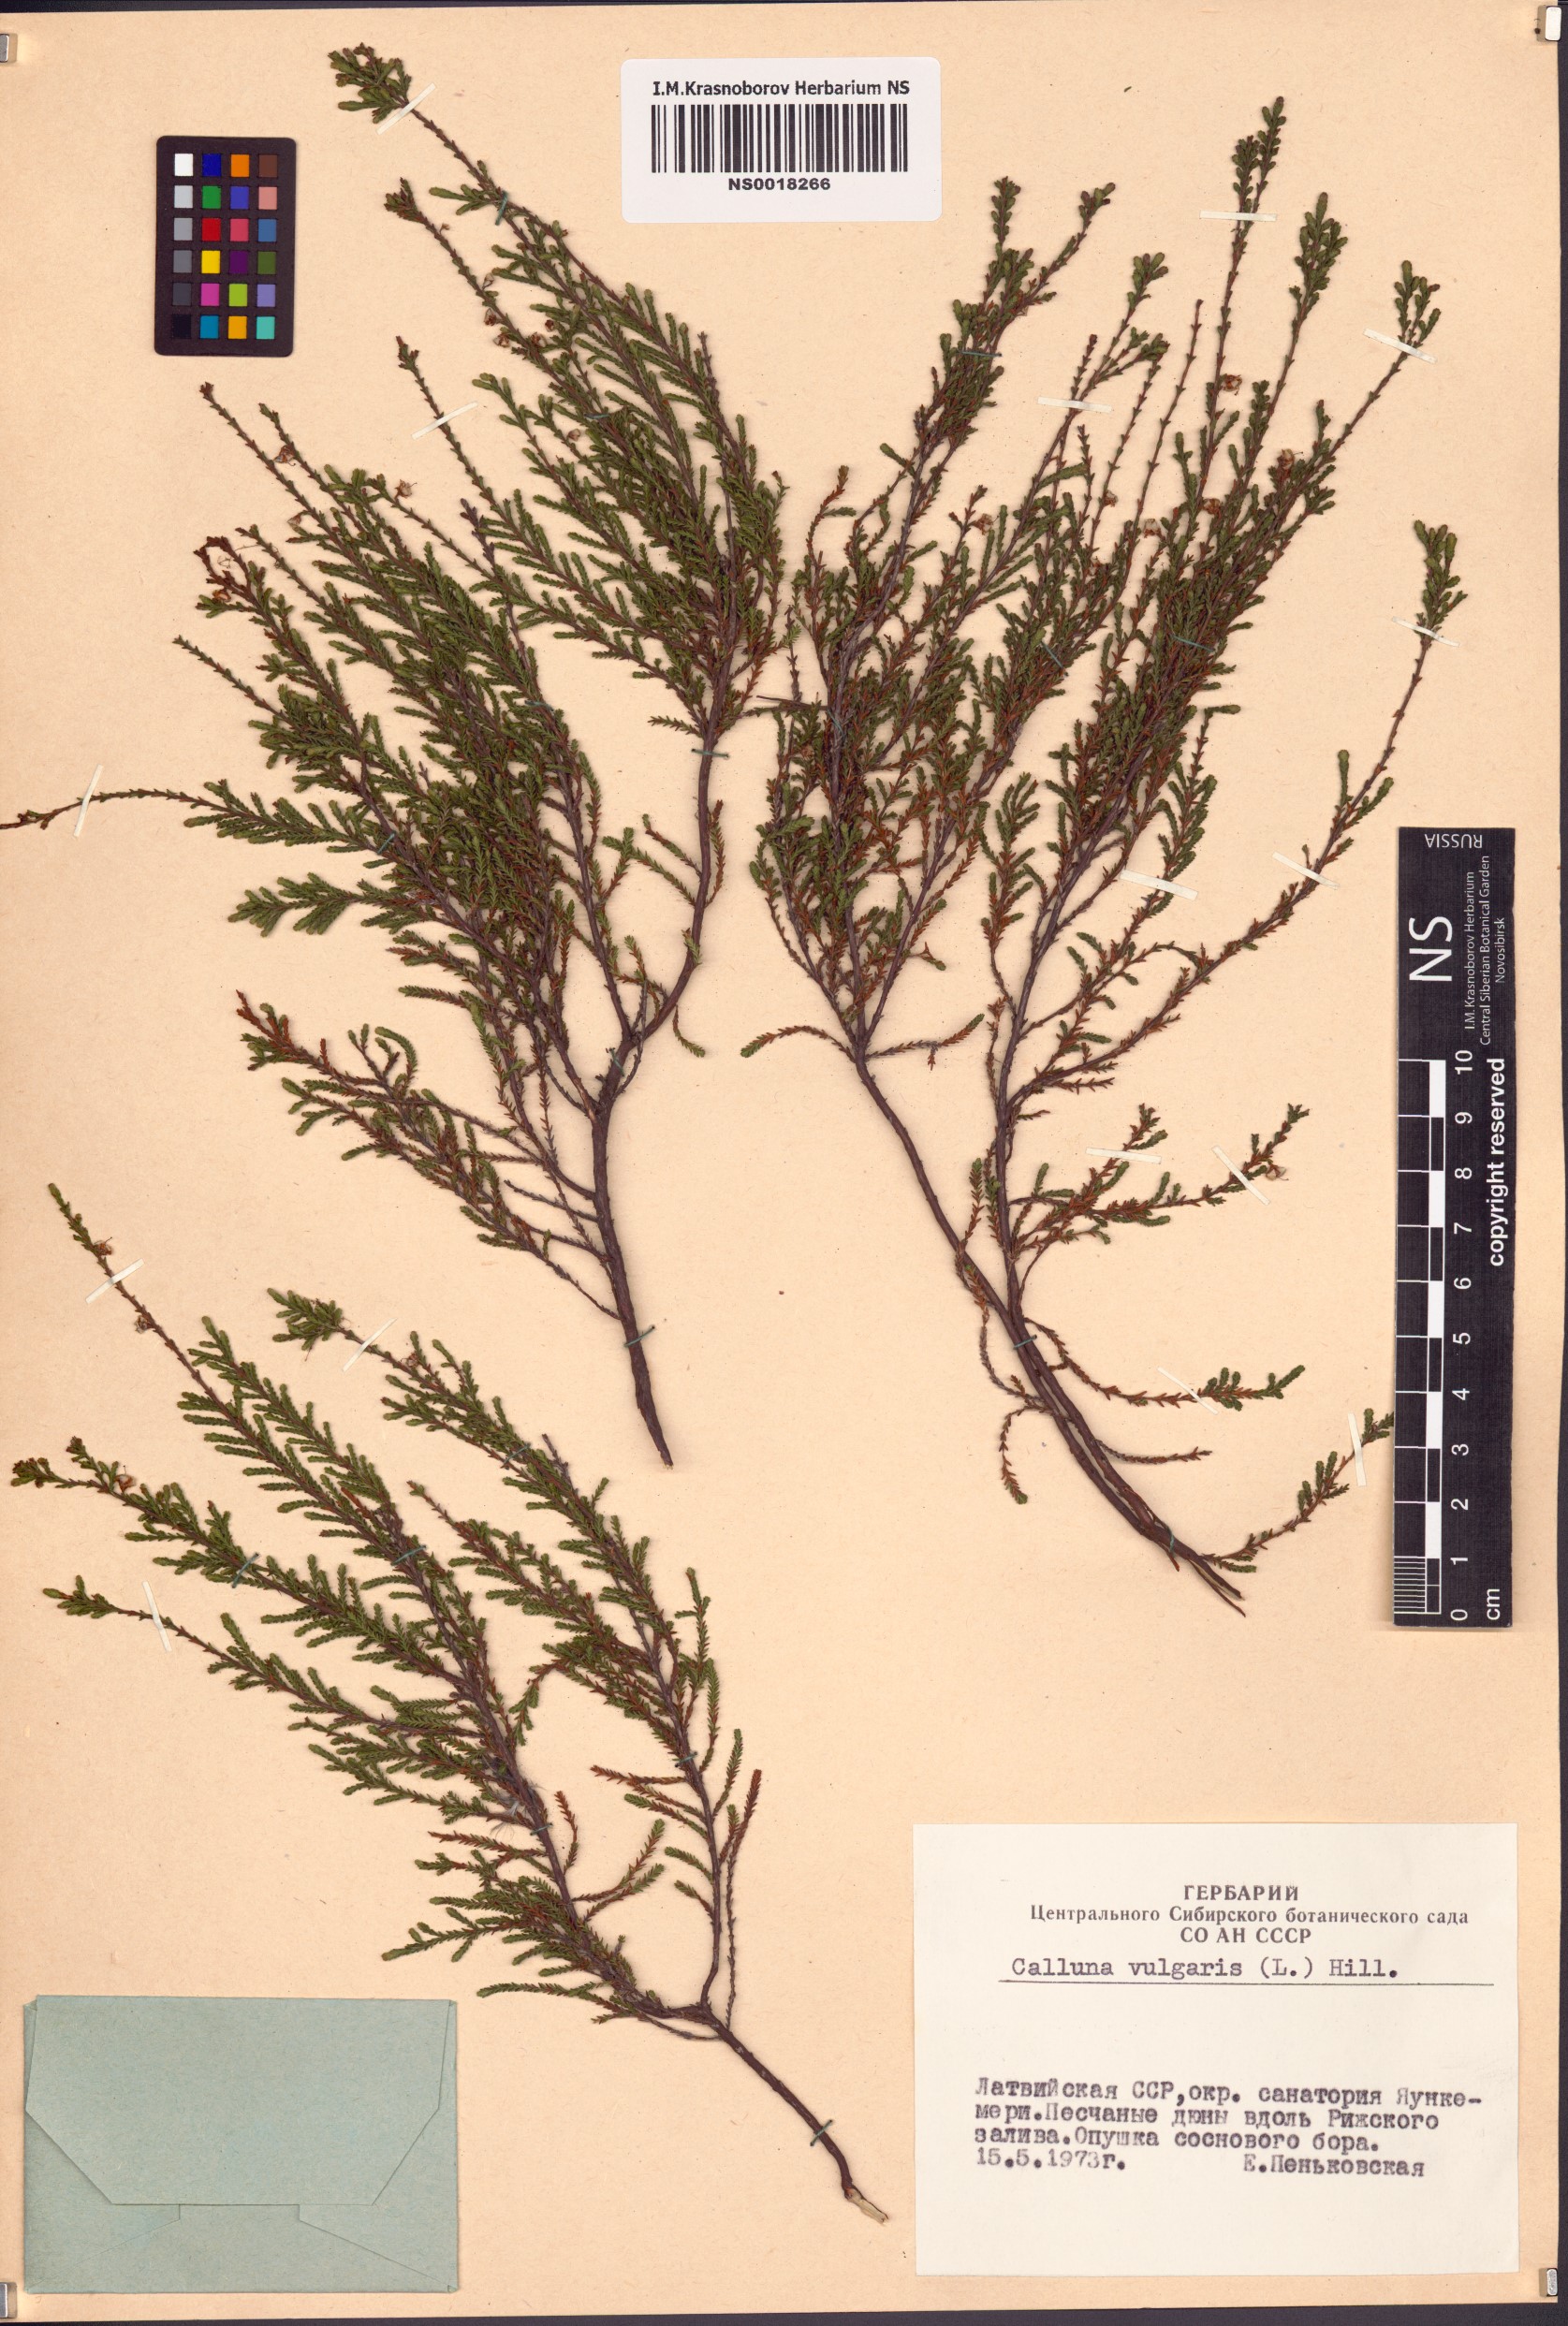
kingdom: Plantae
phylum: Tracheophyta
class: Magnoliopsida
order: Ericales
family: Ericaceae
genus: Calluna
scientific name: Calluna vulgaris
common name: Heather
